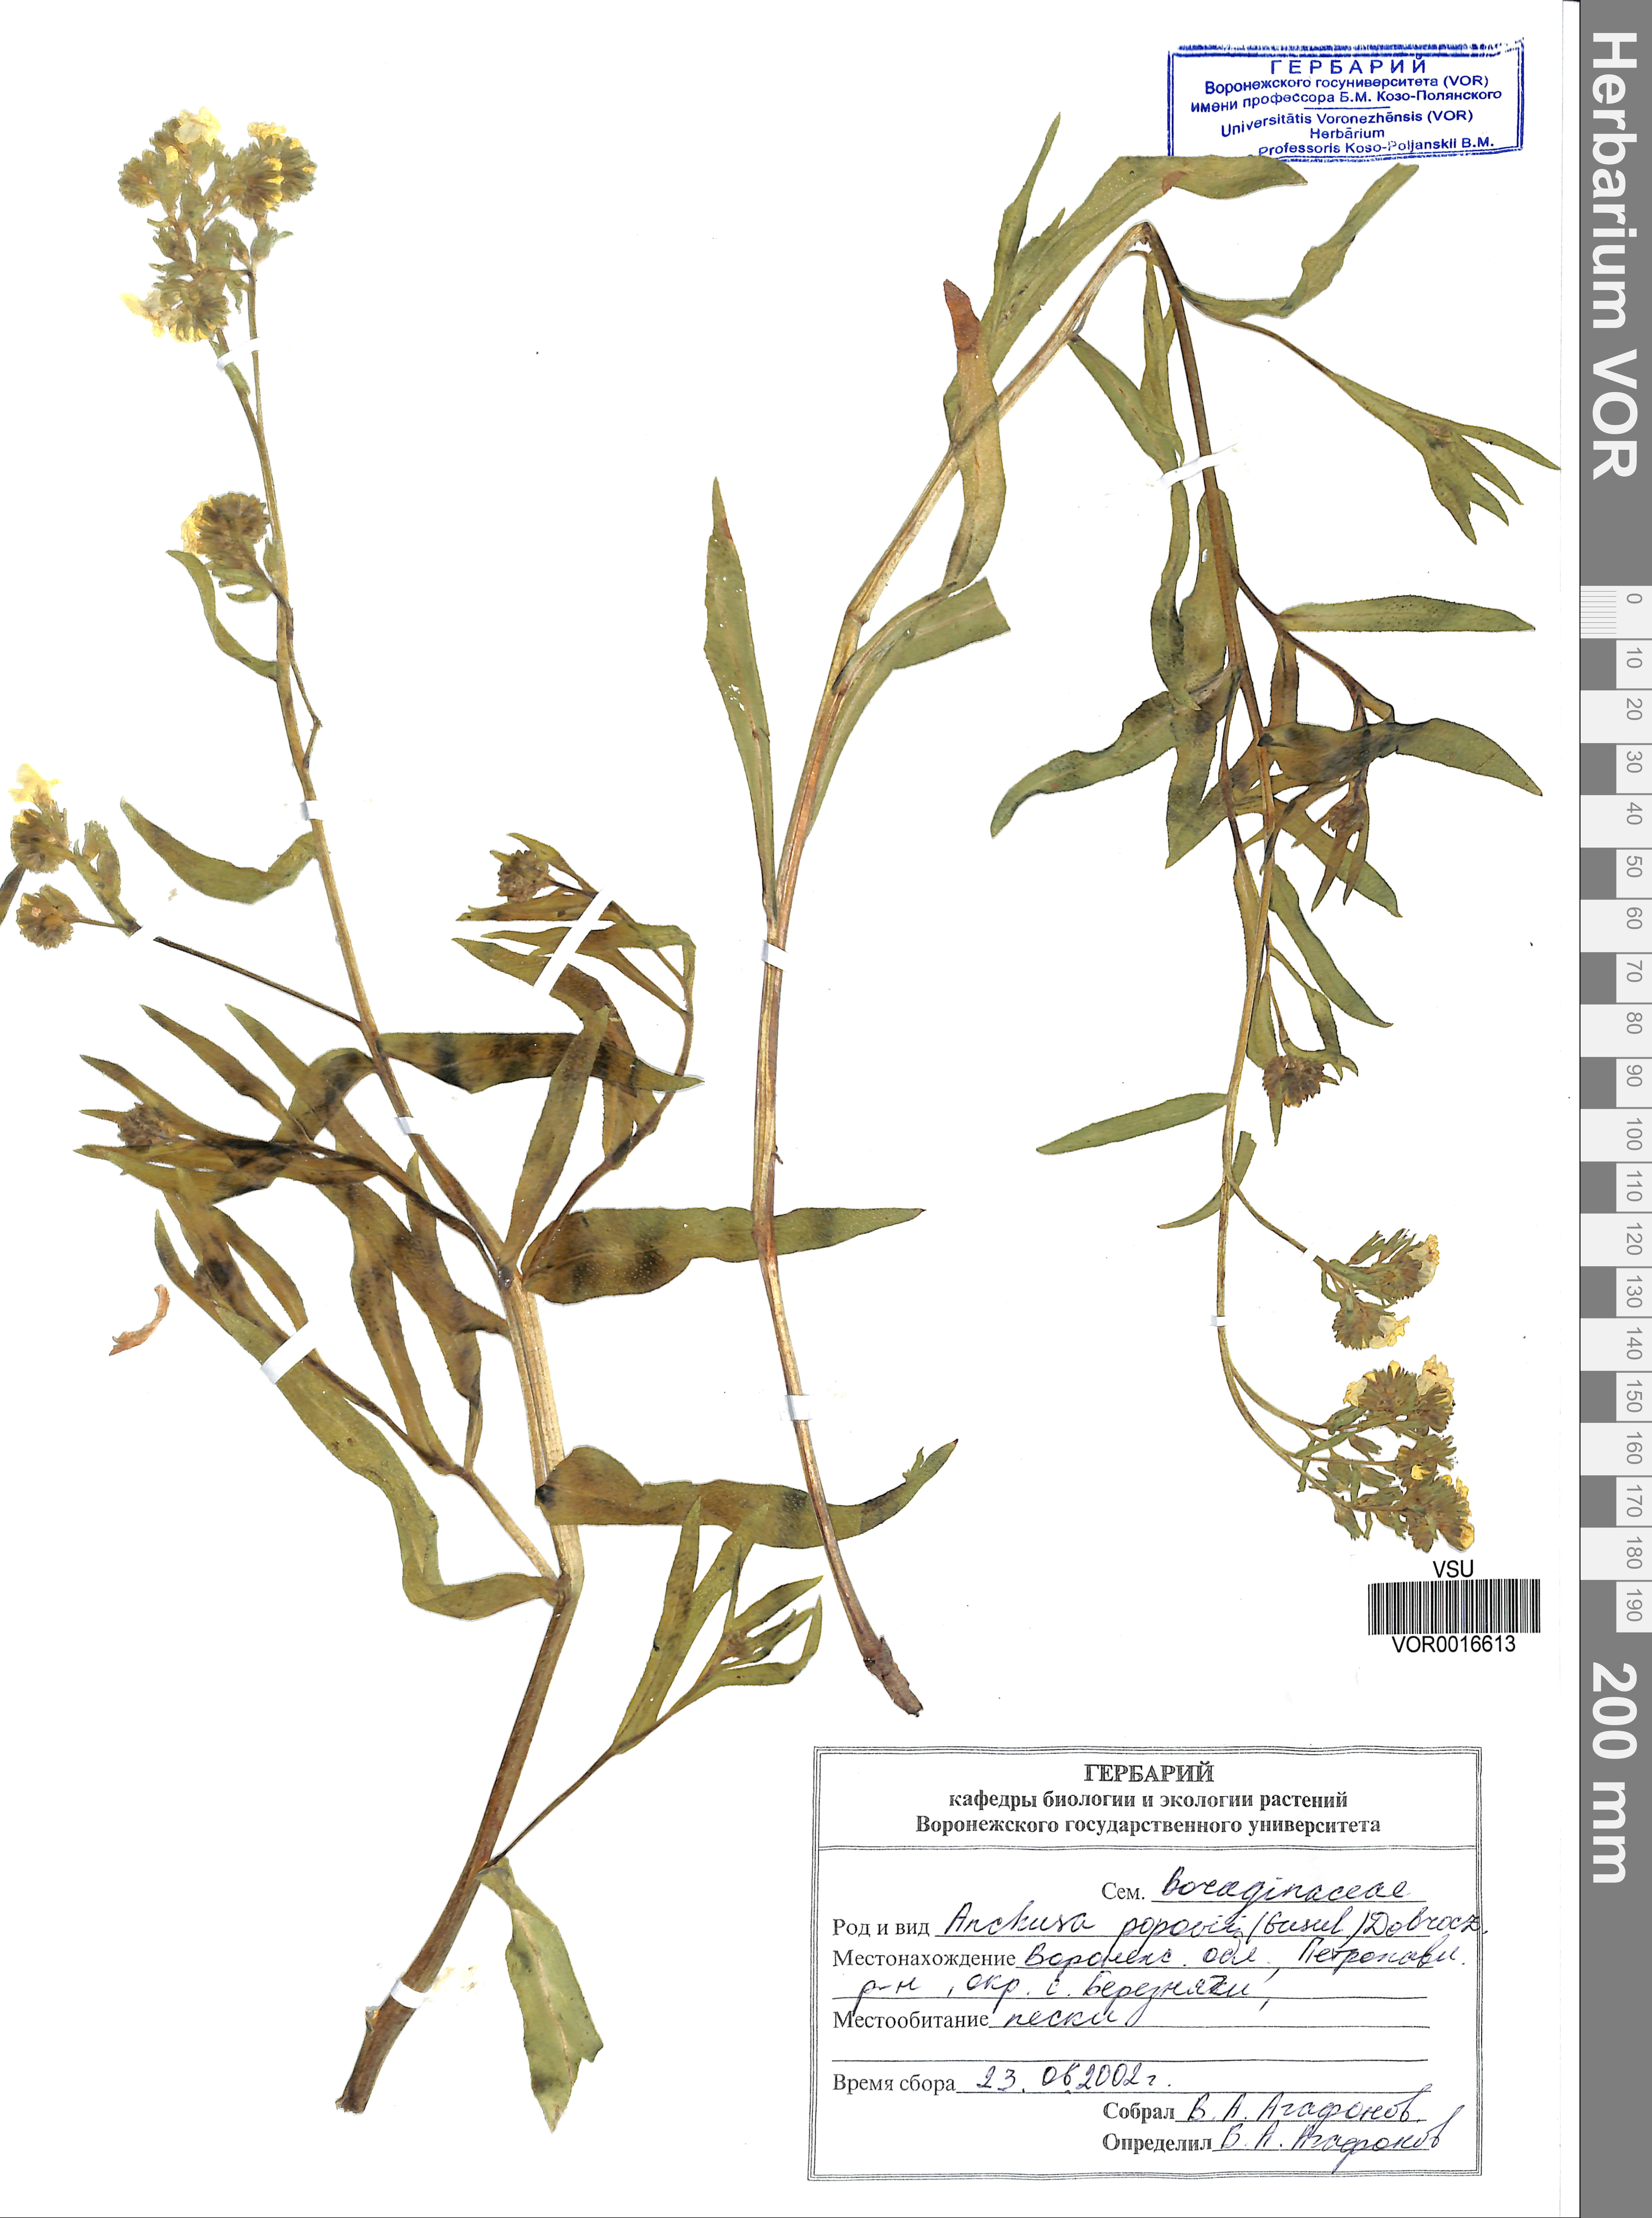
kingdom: Plantae
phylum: Tracheophyta
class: Magnoliopsida
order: Boraginales
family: Boraginaceae
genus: Anchusa
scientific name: Anchusa ochroleuca
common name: Yellow alkanet
